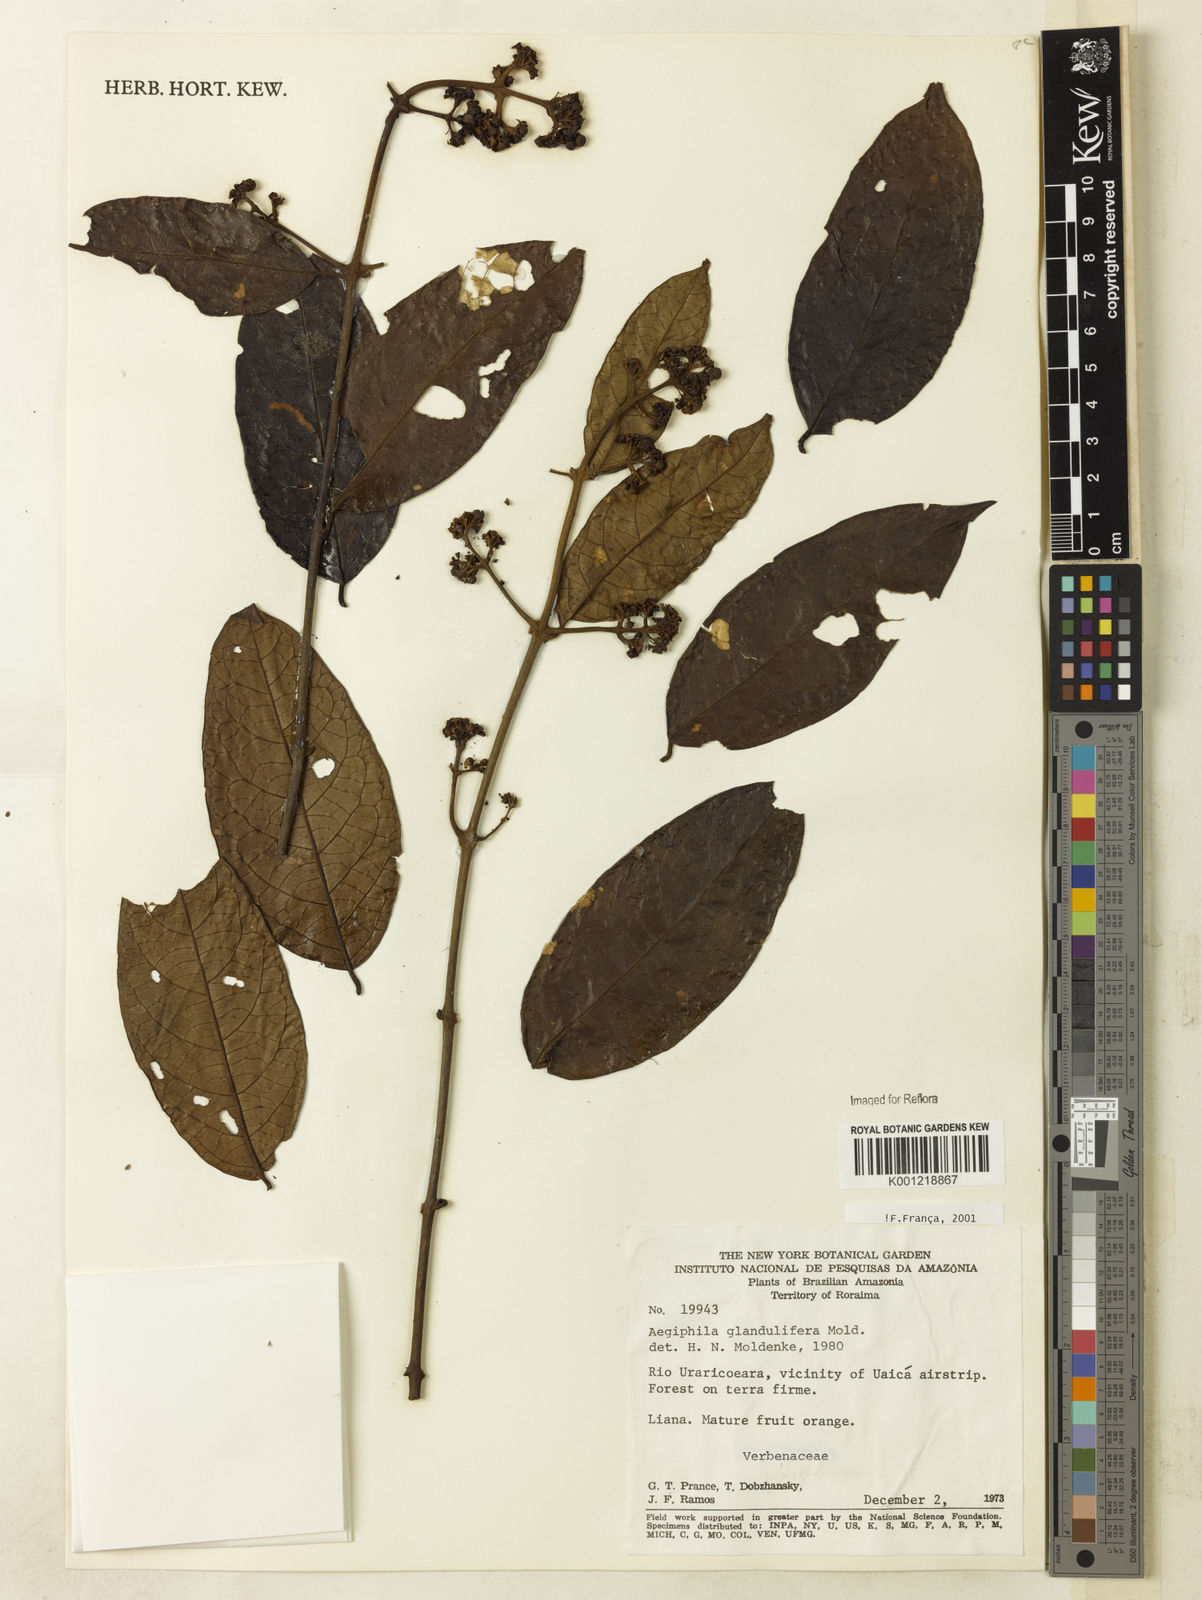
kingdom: Plantae
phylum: Tracheophyta
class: Magnoliopsida
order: Lamiales
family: Lamiaceae
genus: Aegiphila
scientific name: Aegiphila panamensis
